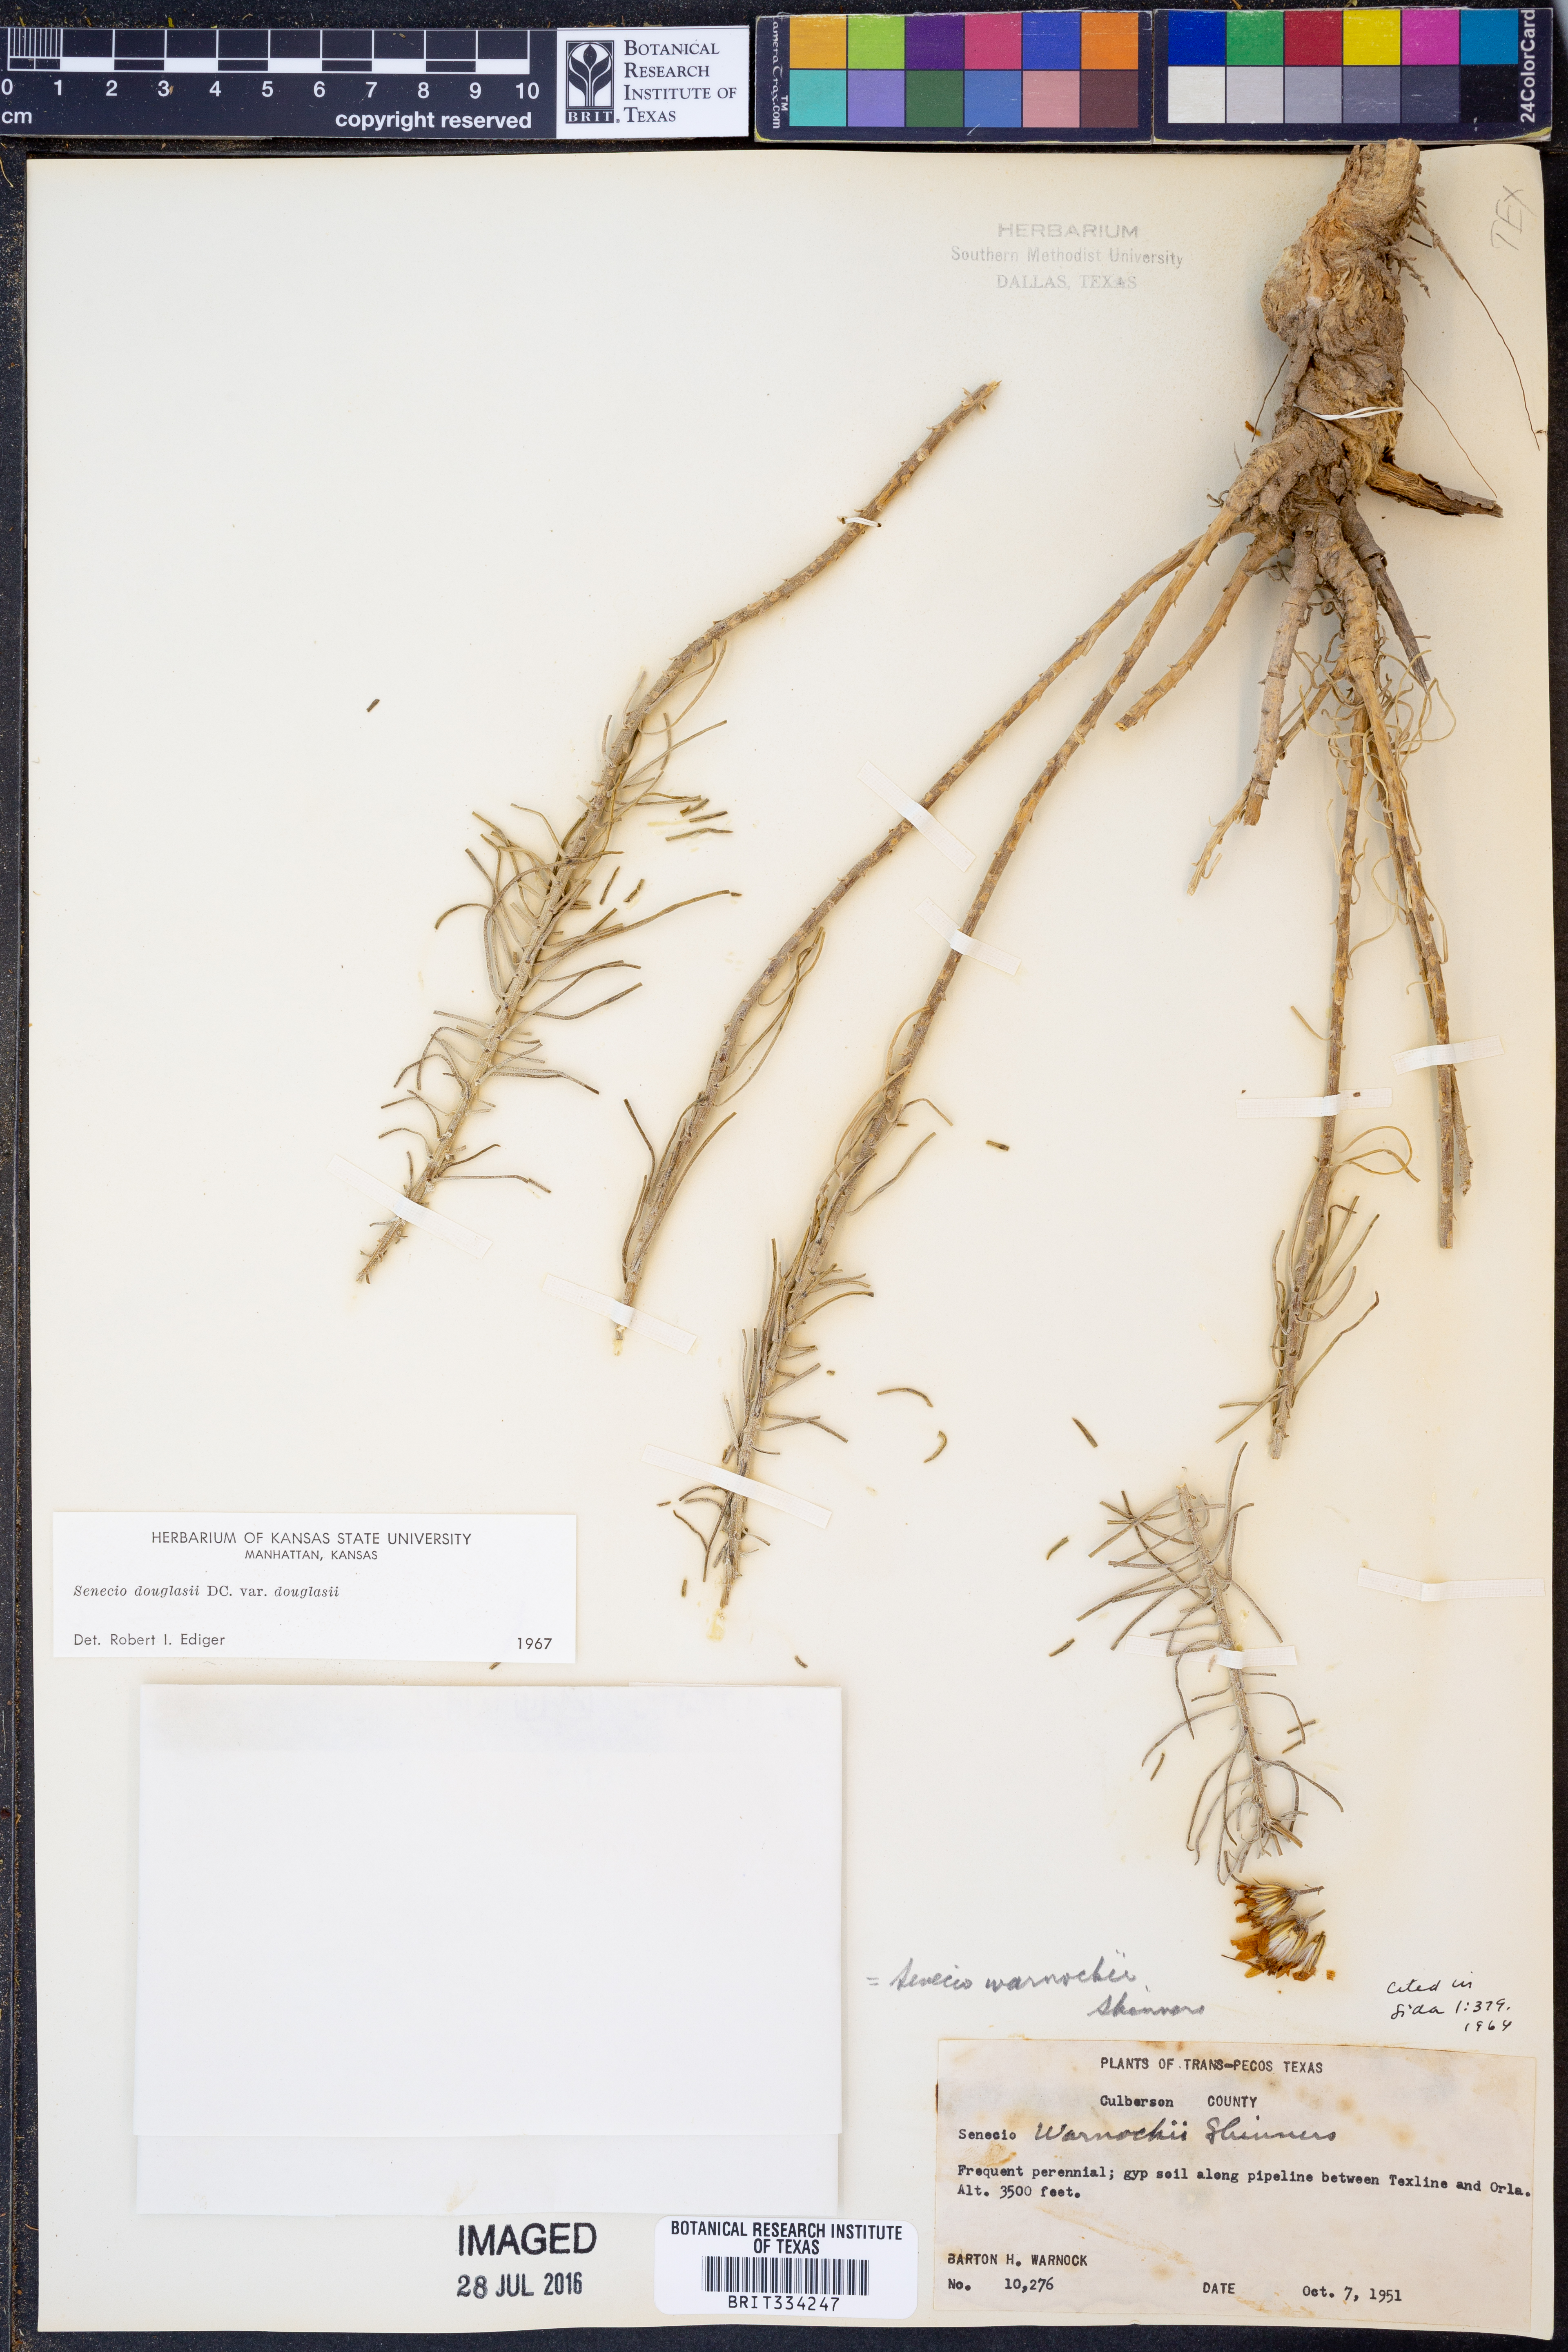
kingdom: Plantae
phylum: Tracheophyta
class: Magnoliopsida
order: Asterales
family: Asteraceae
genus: Senecio
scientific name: Senecio flaccidus
